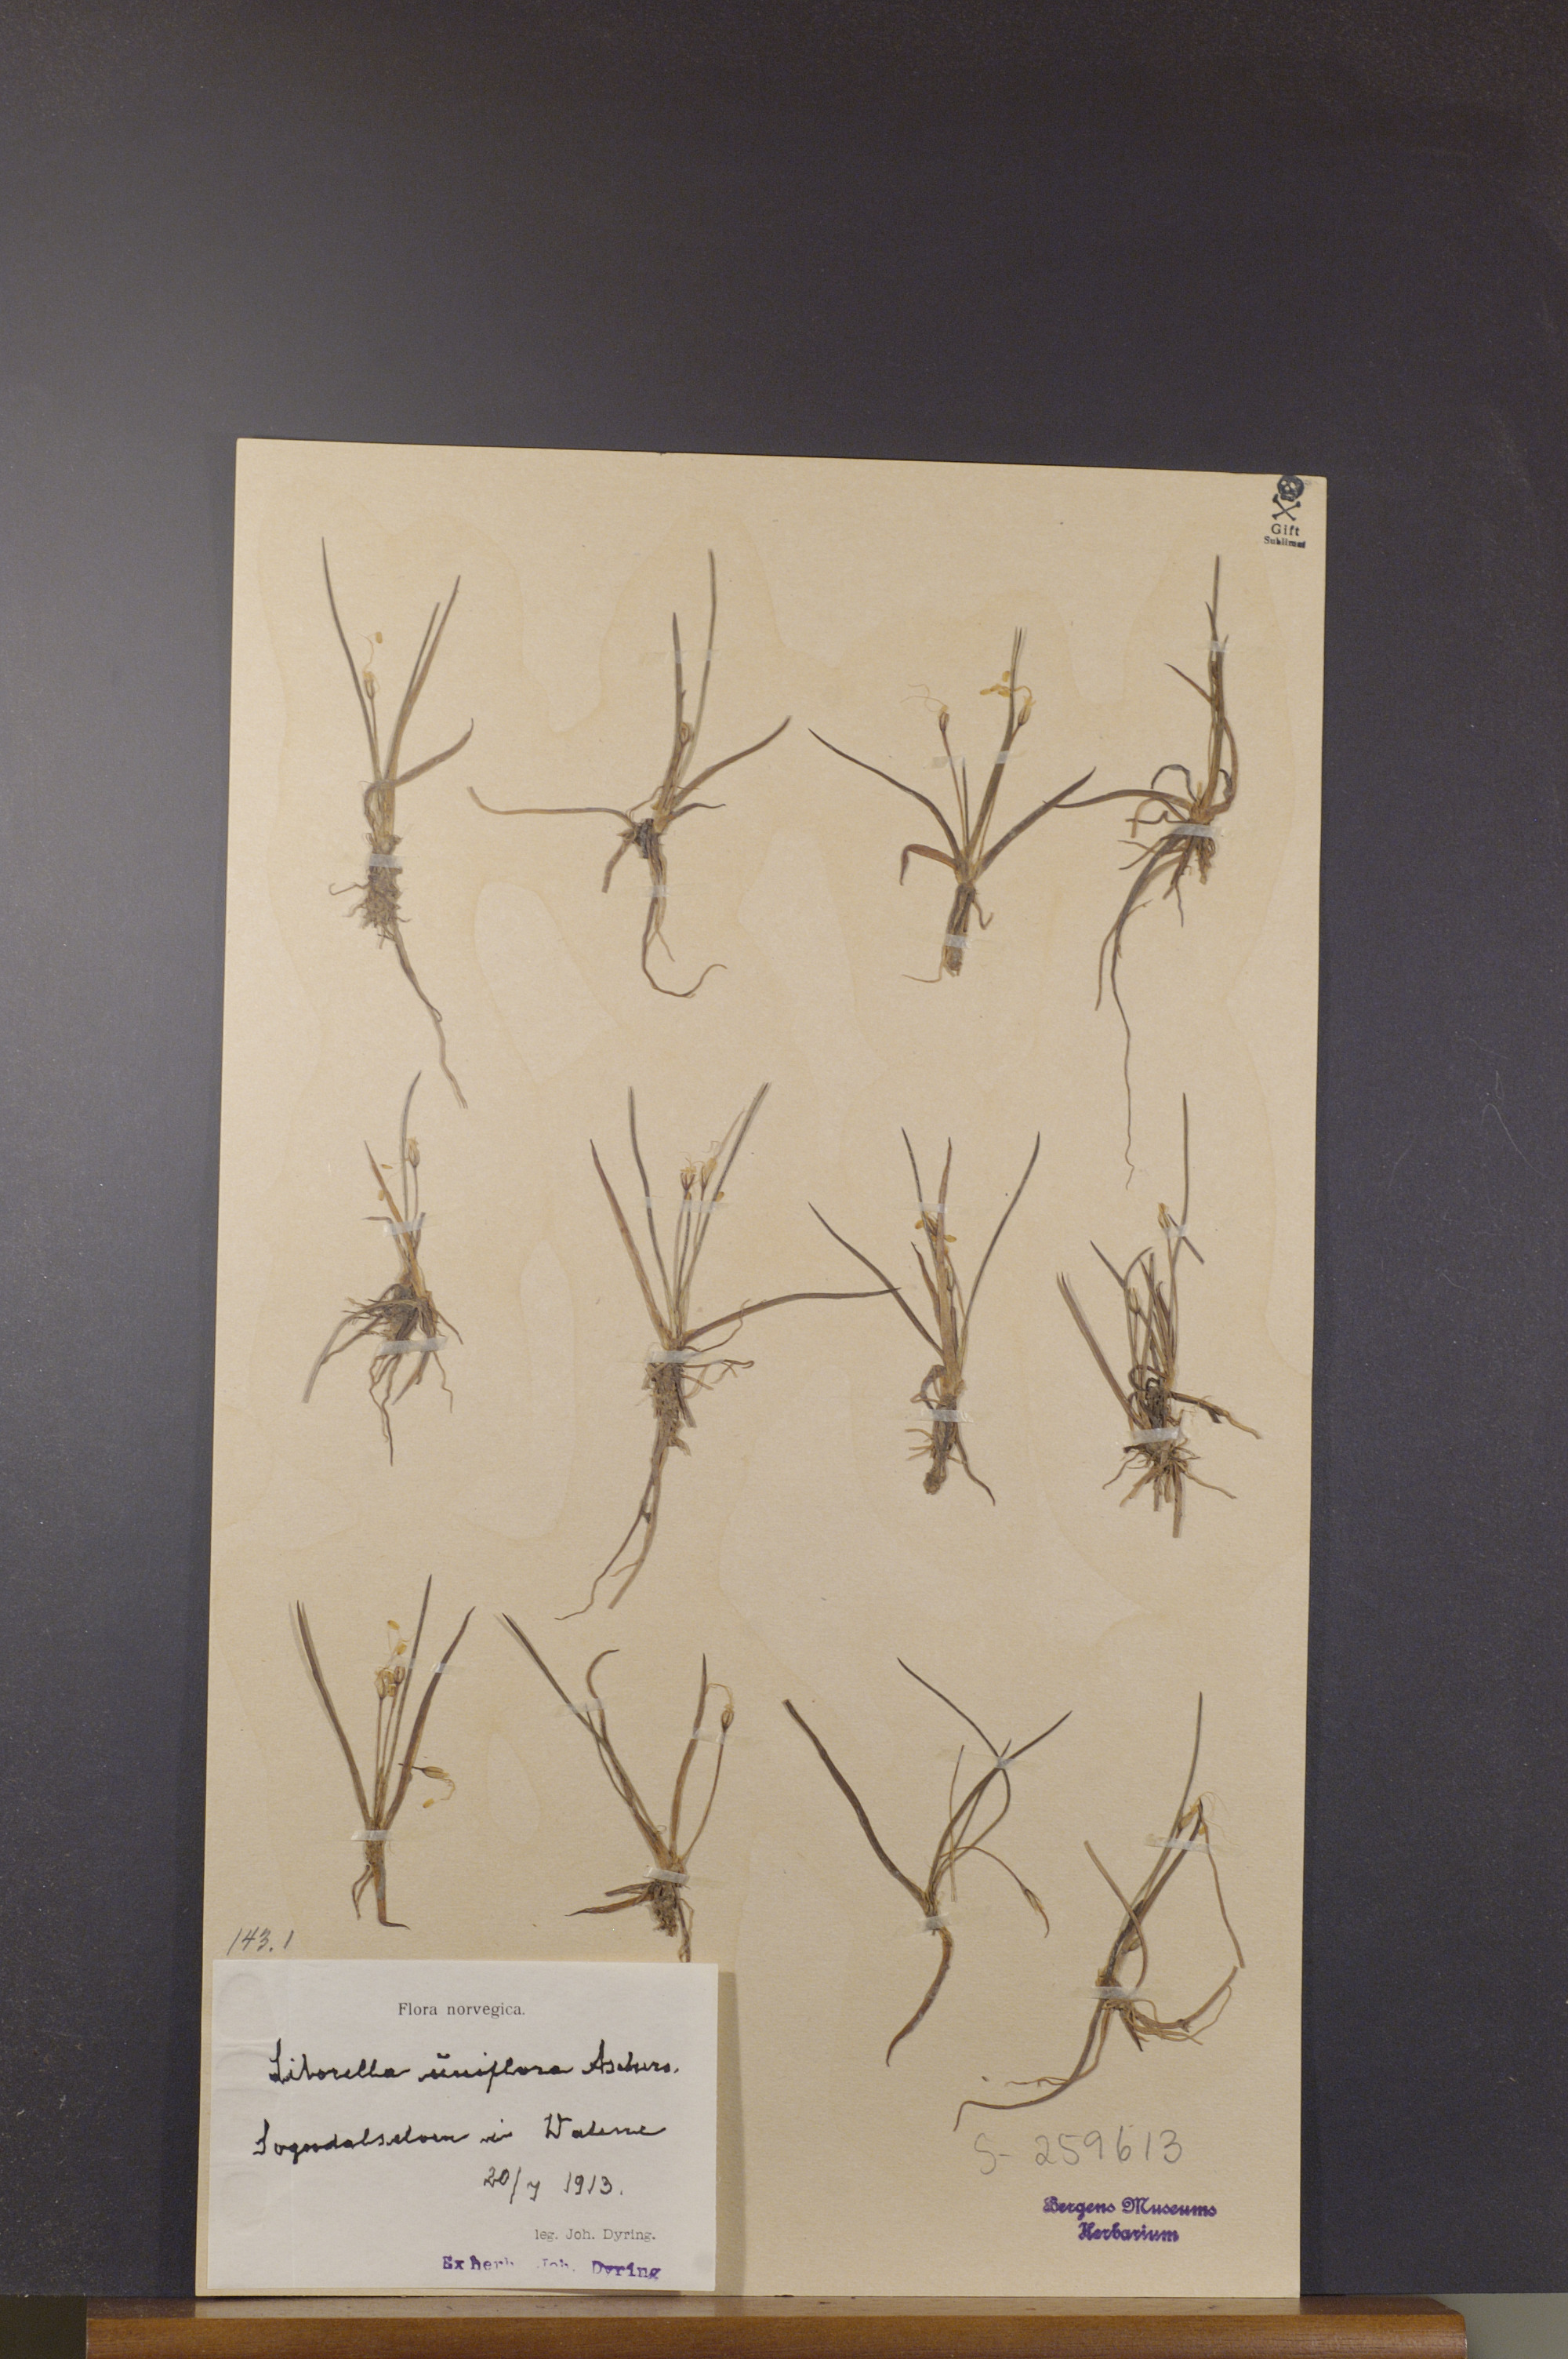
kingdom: Plantae
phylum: Tracheophyta
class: Magnoliopsida
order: Lamiales
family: Plantaginaceae
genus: Littorella
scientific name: Littorella uniflora
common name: Shoreweed
